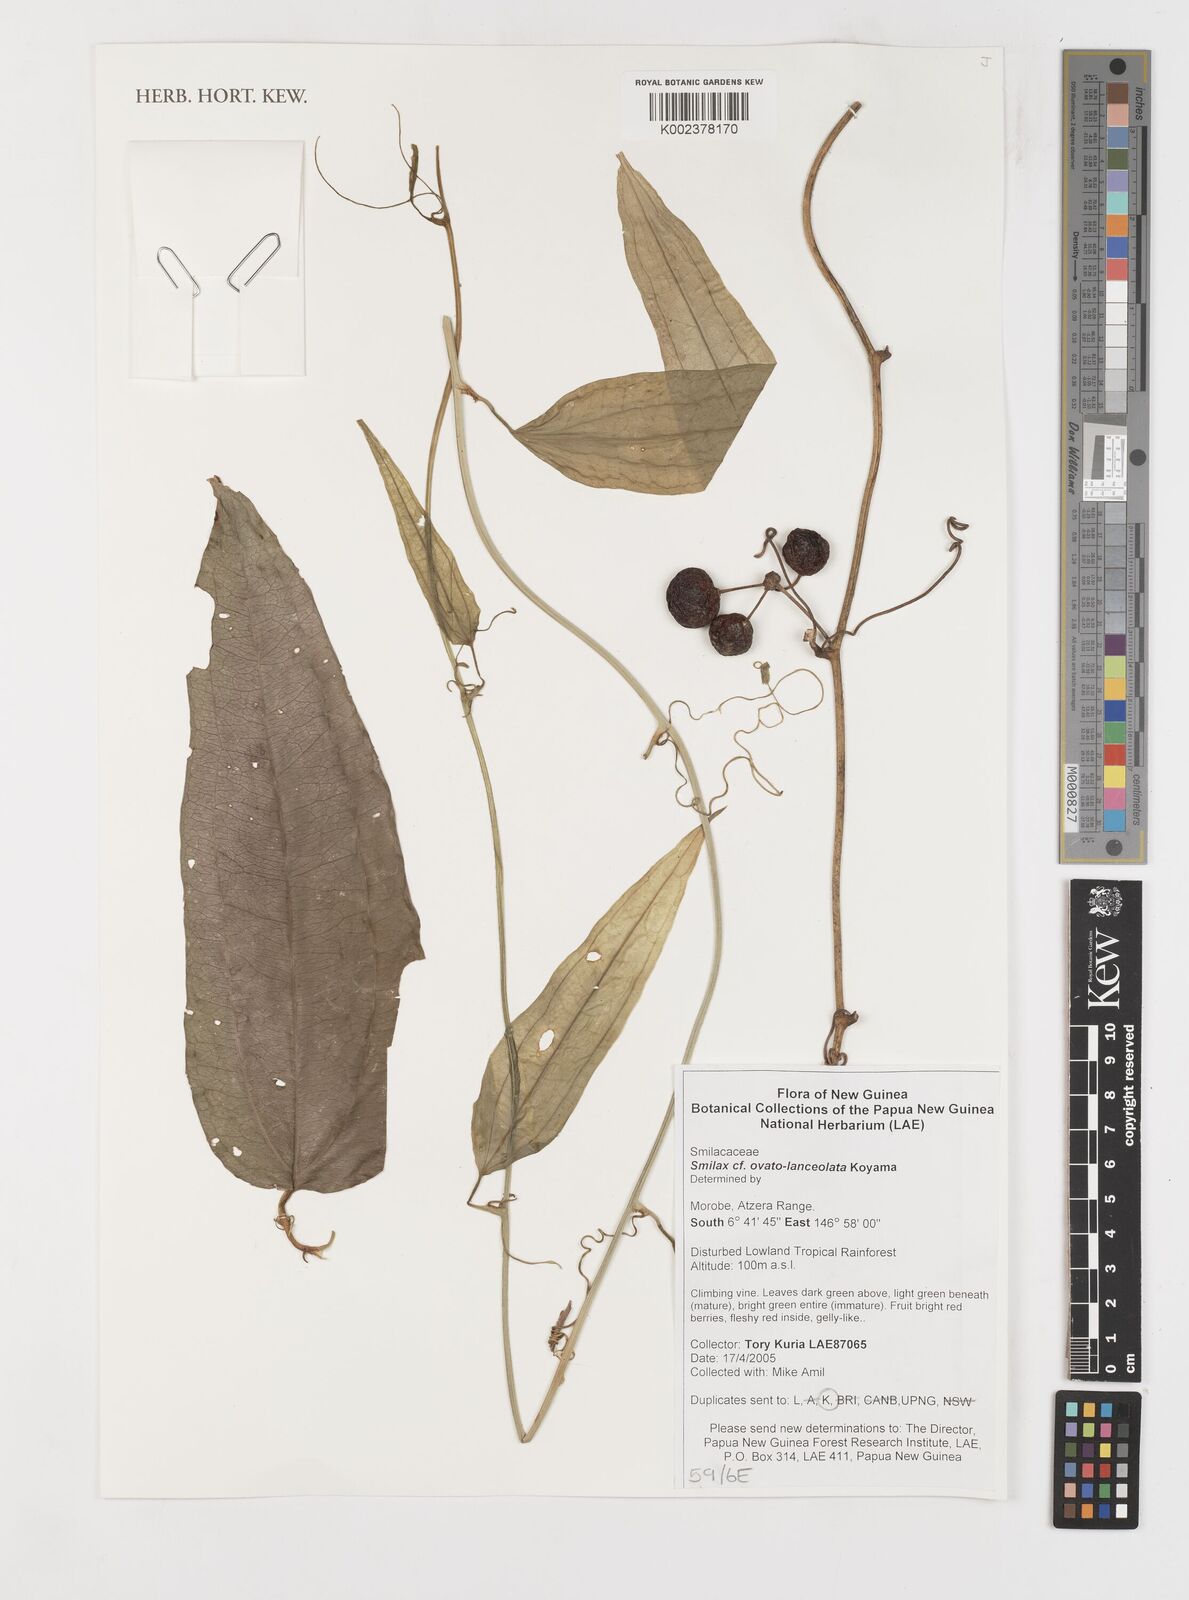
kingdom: Plantae
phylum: Tracheophyta
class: Liliopsida
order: Liliales
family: Smilacaceae
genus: Smilax
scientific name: Smilax ovatolanceolata
